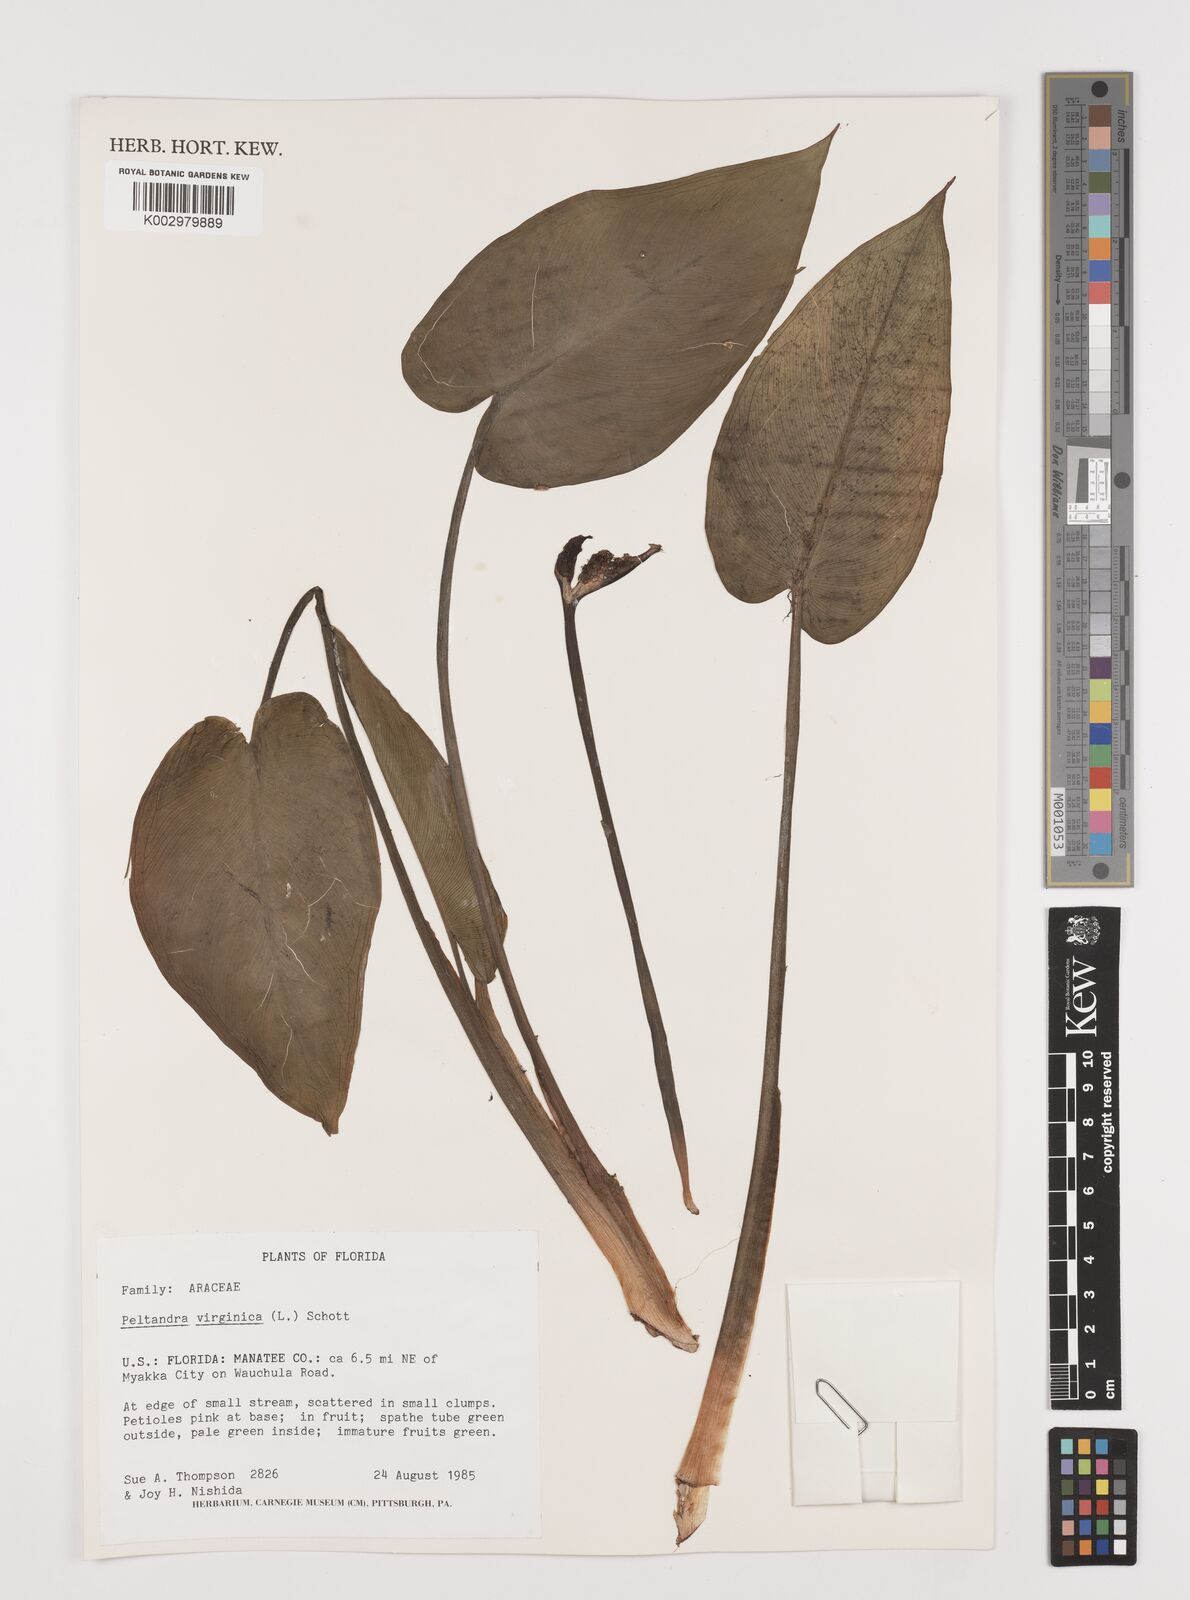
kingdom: Plantae
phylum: Tracheophyta
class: Liliopsida
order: Alismatales
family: Araceae
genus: Peltandra
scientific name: Peltandra virginica
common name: Arrow arum
